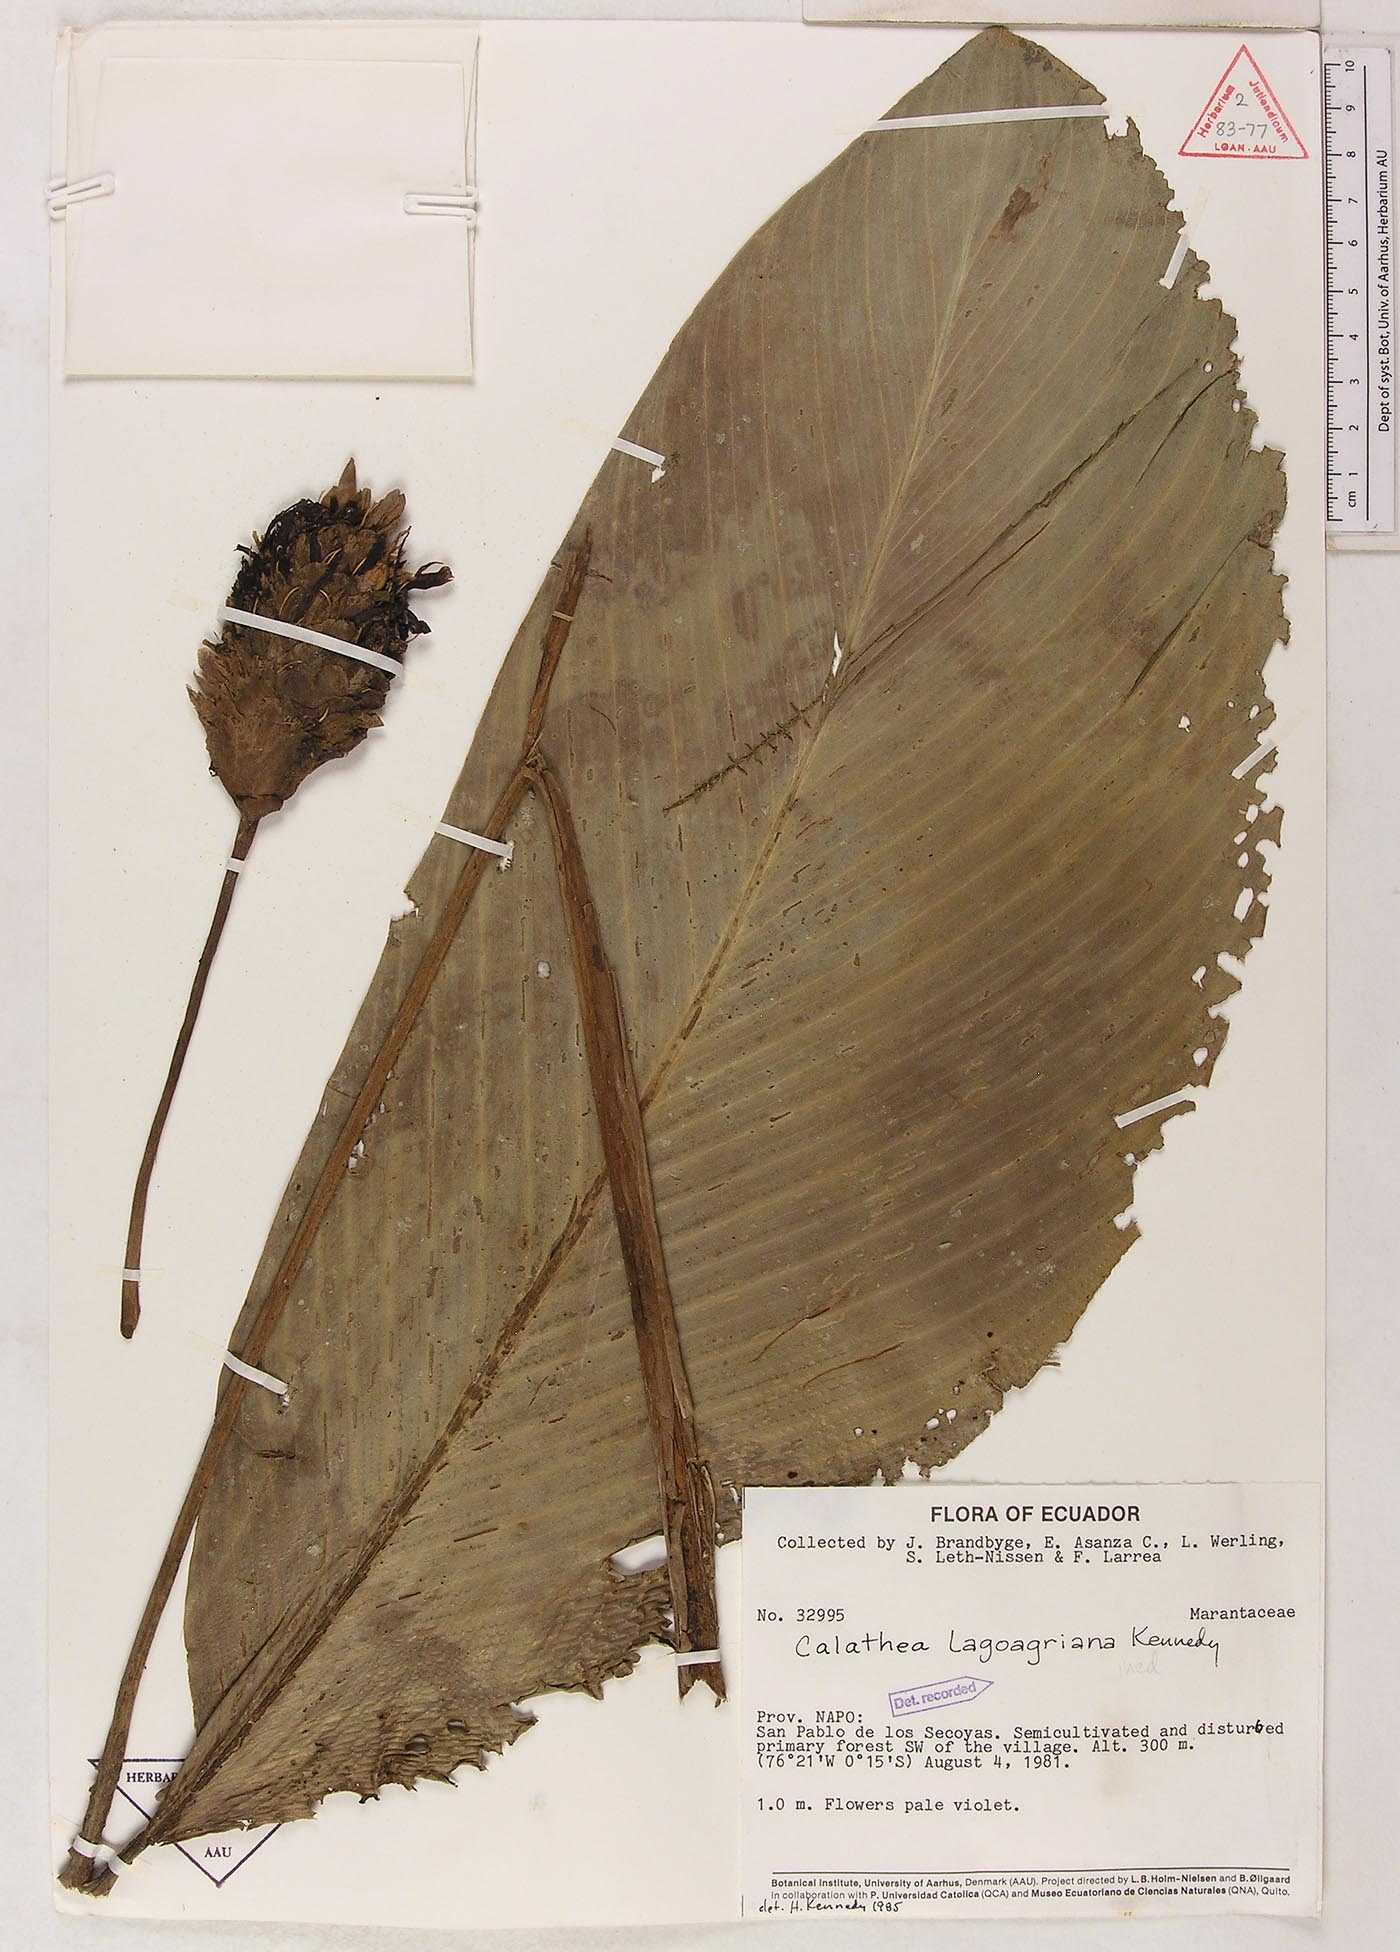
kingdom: Plantae
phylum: Tracheophyta
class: Liliopsida
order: Zingiberales
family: Marantaceae
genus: Goeppertia
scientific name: Goeppertia lagoagriana
